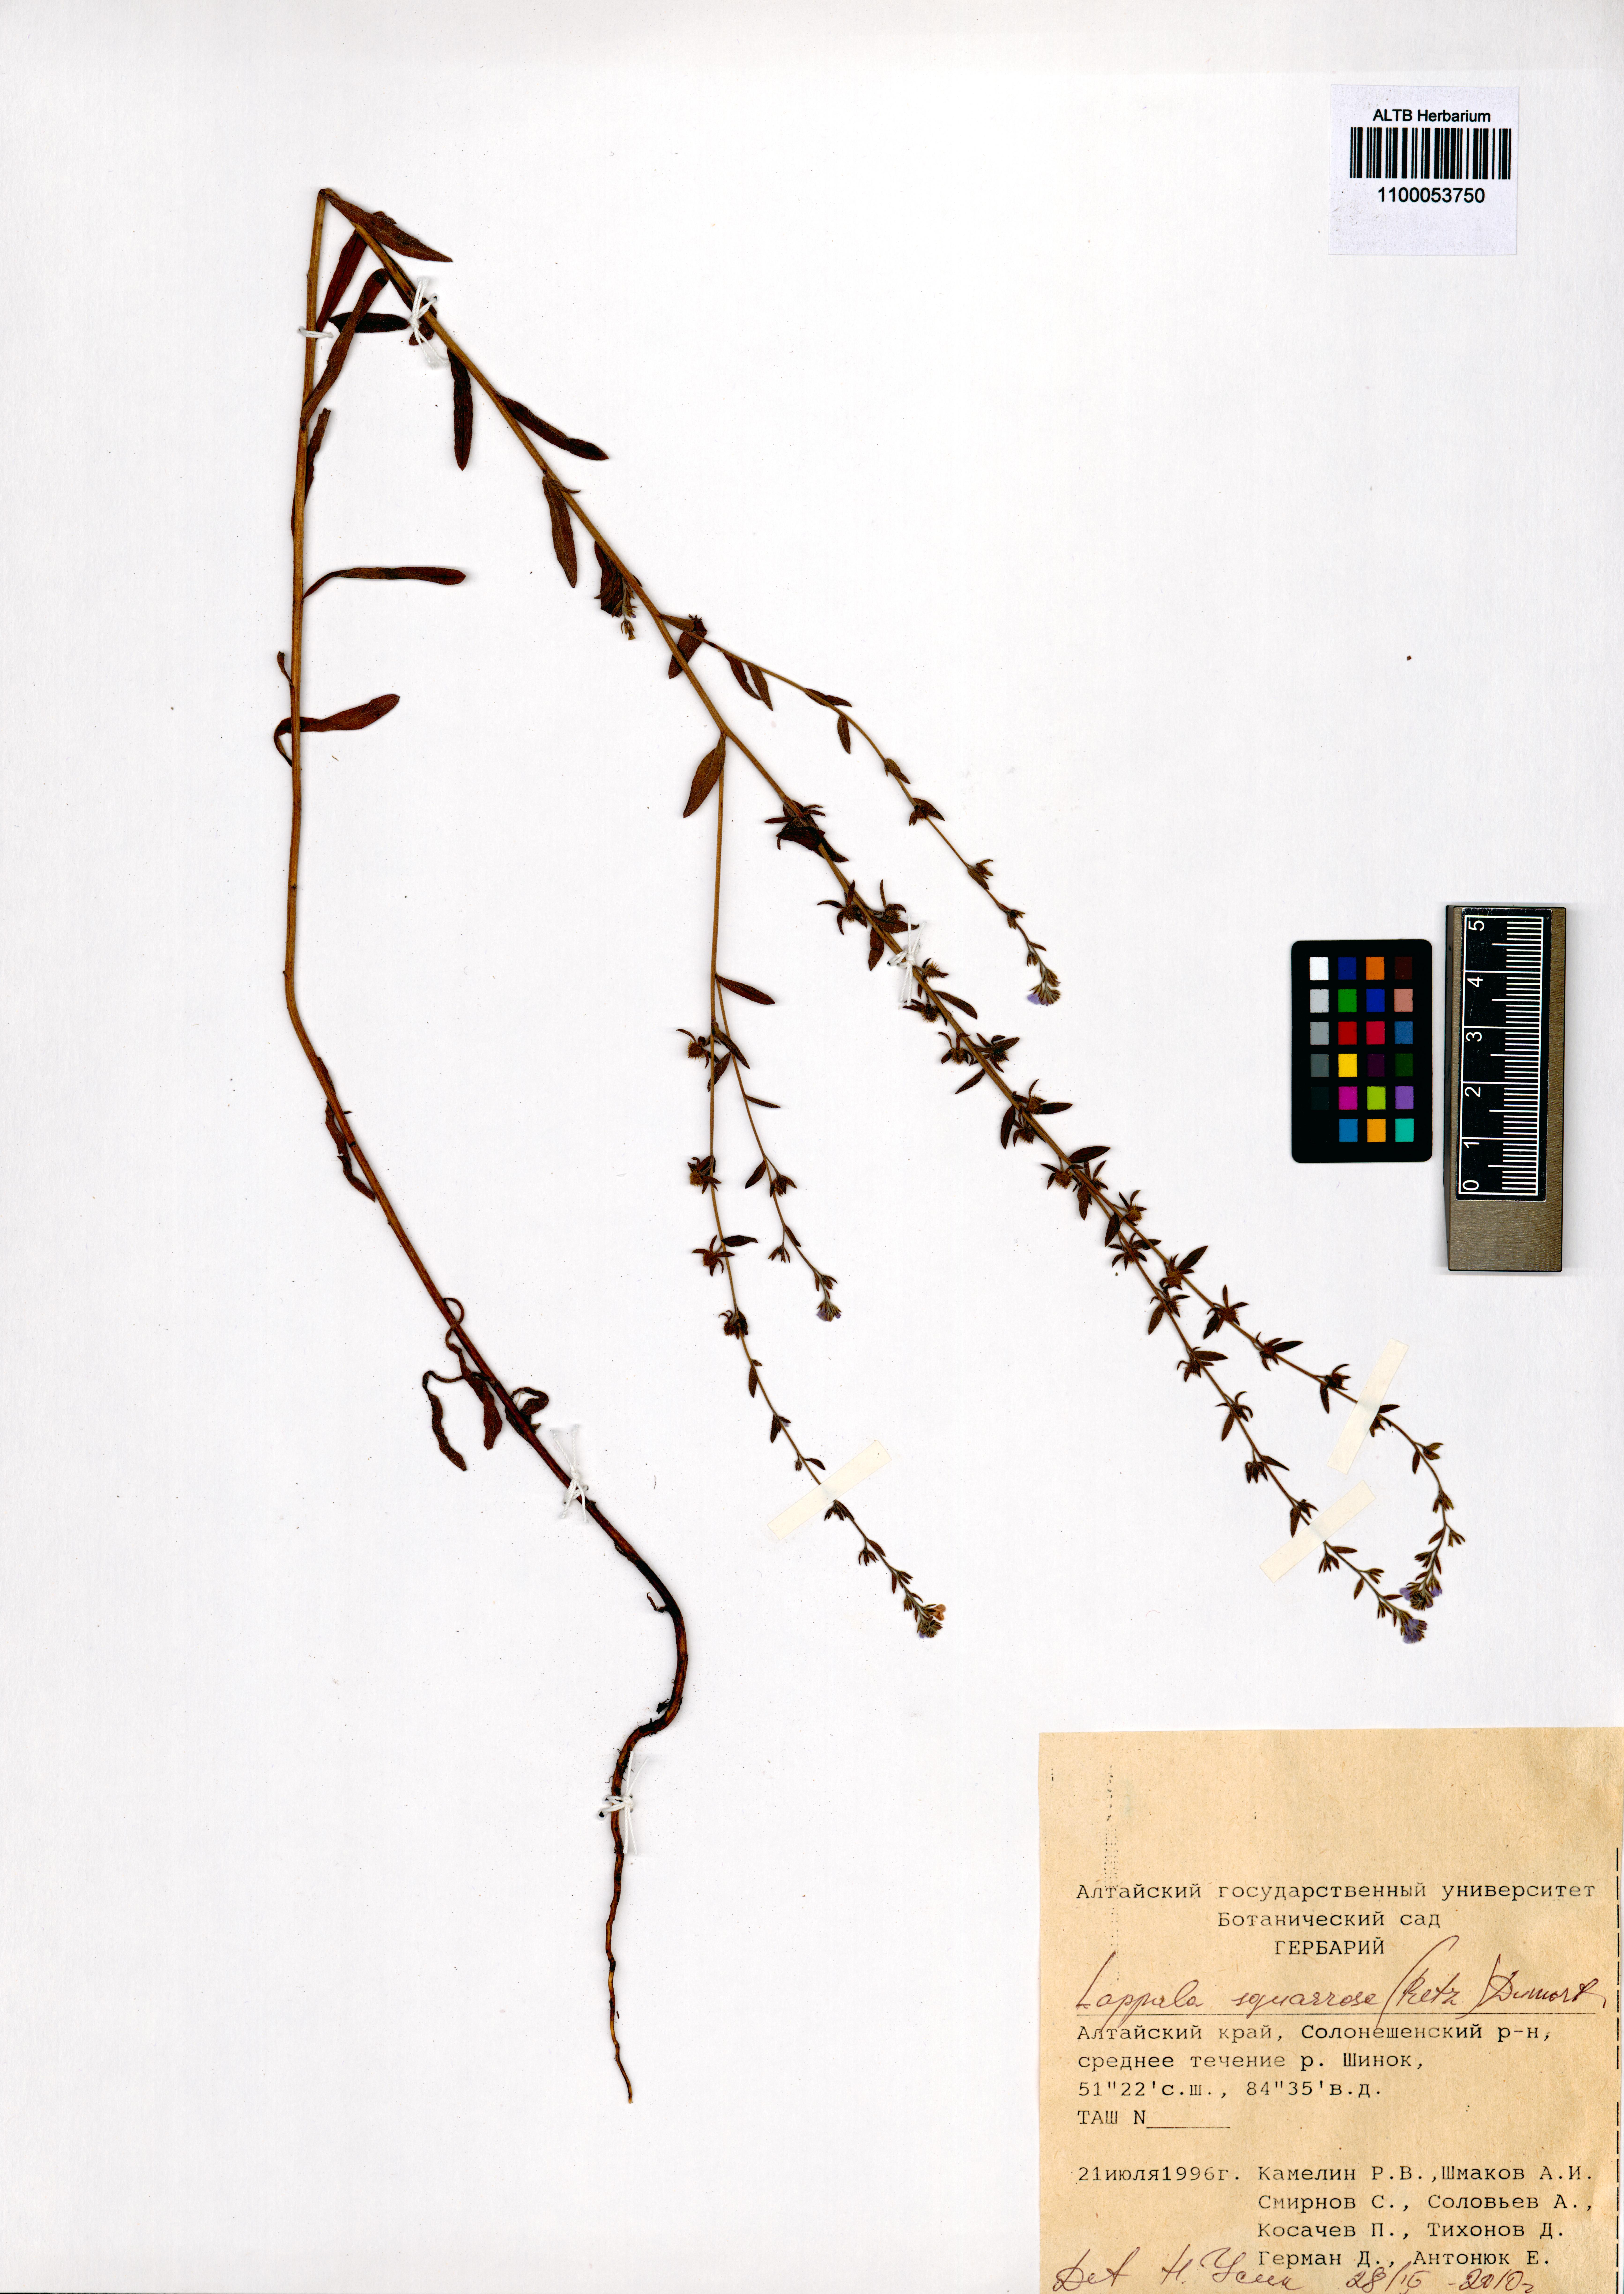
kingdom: Plantae
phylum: Tracheophyta
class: Magnoliopsida
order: Boraginales
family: Boraginaceae
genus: Lappula
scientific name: Lappula squarrosa
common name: European stickseed
